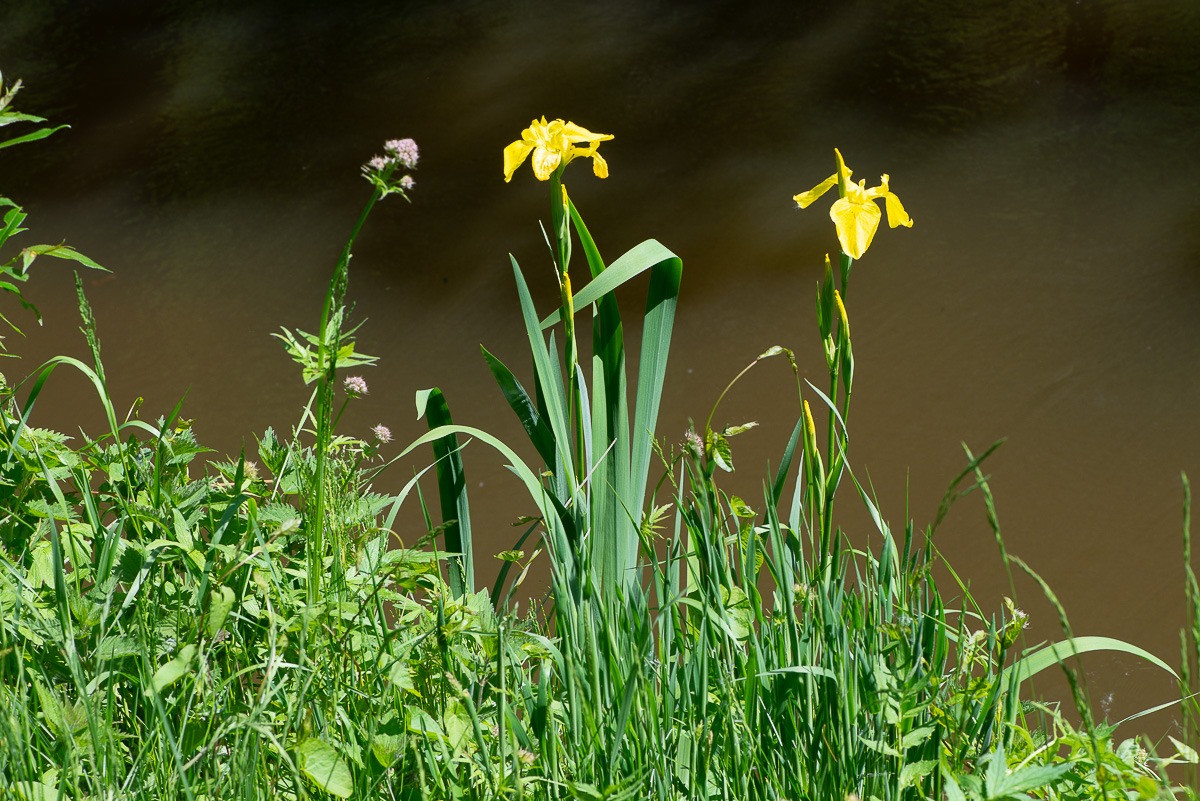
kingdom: Plantae
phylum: Tracheophyta
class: Liliopsida
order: Asparagales
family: Iridaceae
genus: Iris
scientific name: Iris pseudacorus
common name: Gul iris
